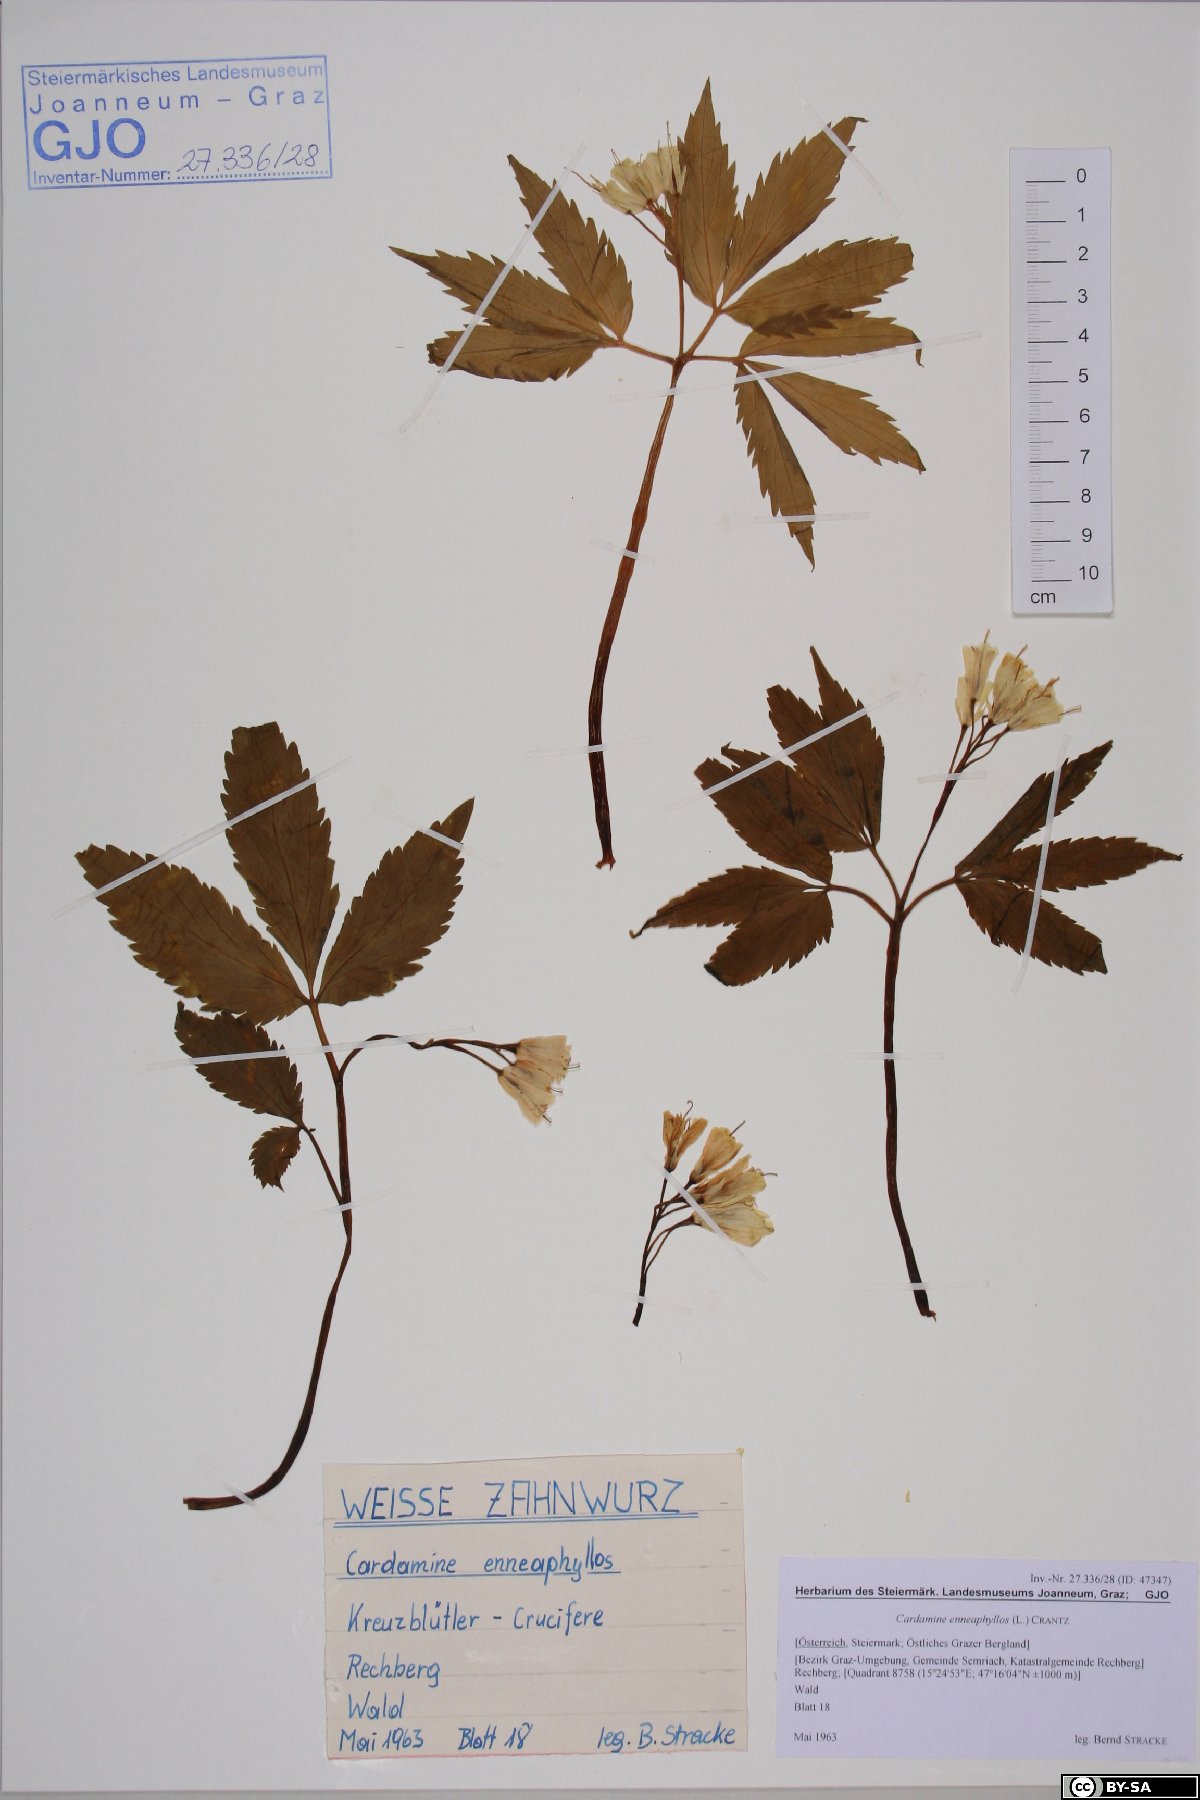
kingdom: Plantae
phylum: Tracheophyta
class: Magnoliopsida
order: Brassicales
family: Brassicaceae
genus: Cardamine
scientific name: Cardamine enneaphyllos
